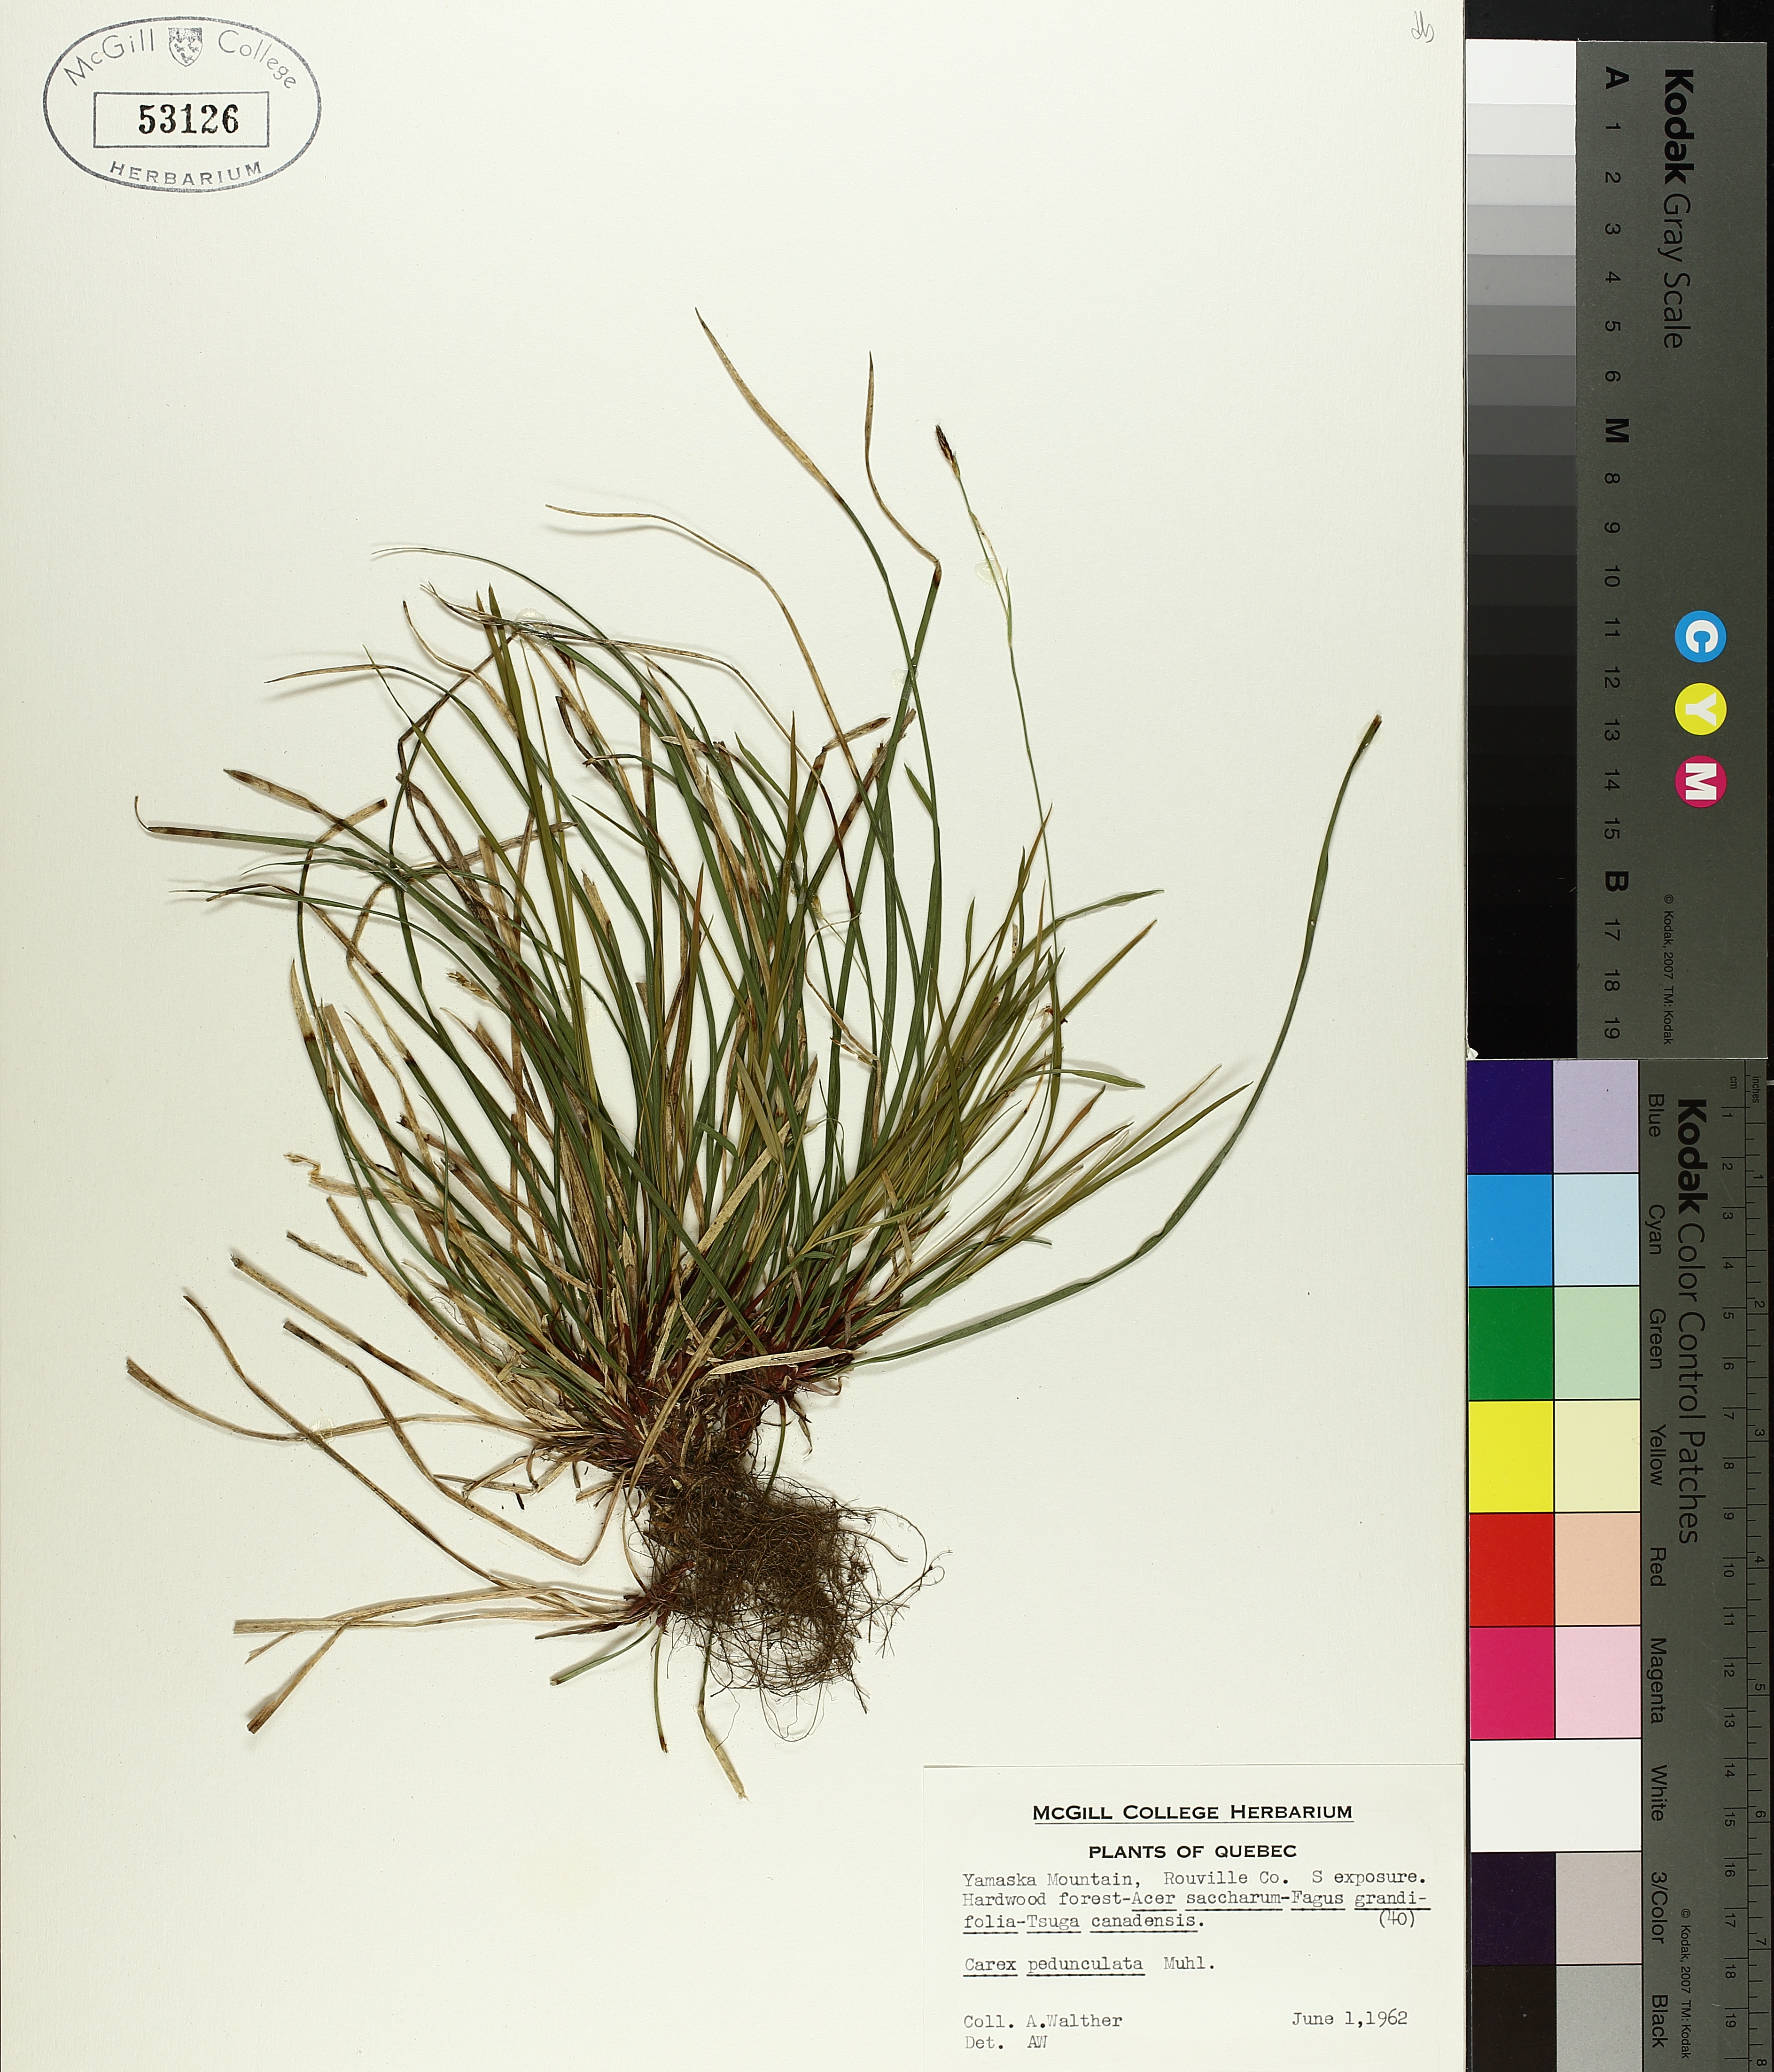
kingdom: Plantae
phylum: Tracheophyta
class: Liliopsida
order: Poales
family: Cyperaceae
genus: Carex
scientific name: Carex pedunculata
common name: Pedunculate sedge
